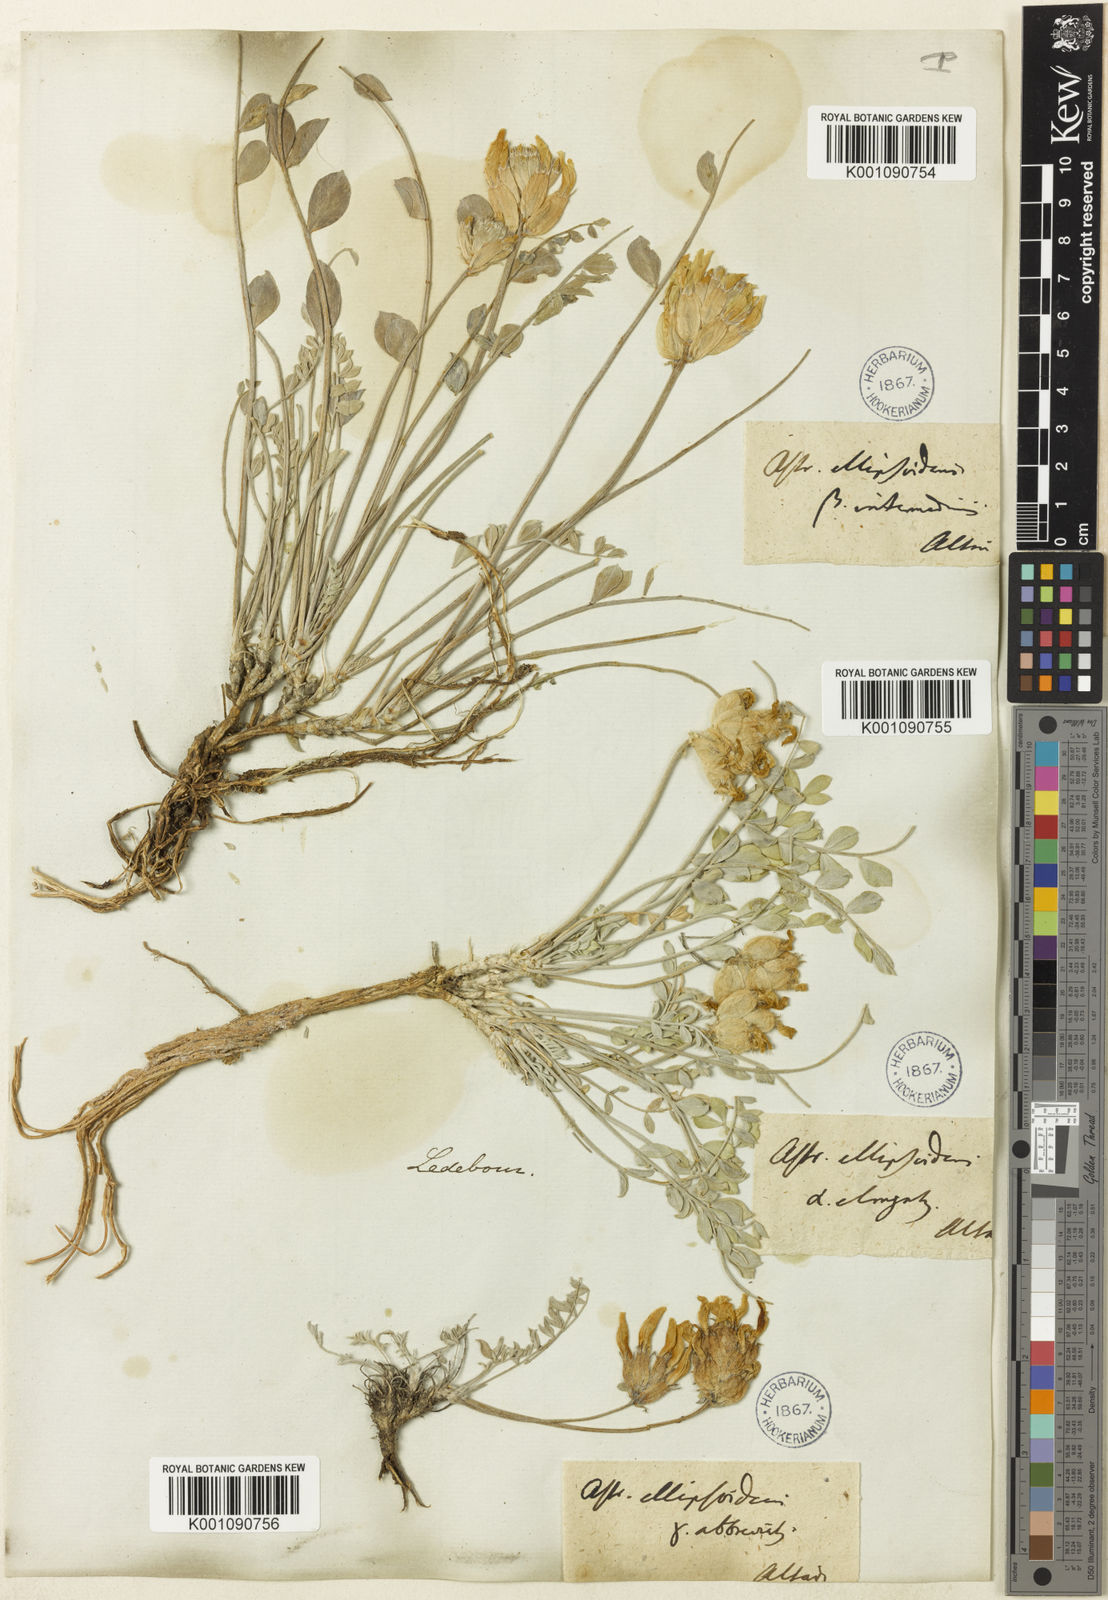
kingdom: Plantae
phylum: Tracheophyta
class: Magnoliopsida
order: Fabales
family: Fabaceae
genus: Astragalus
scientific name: Astragalus
